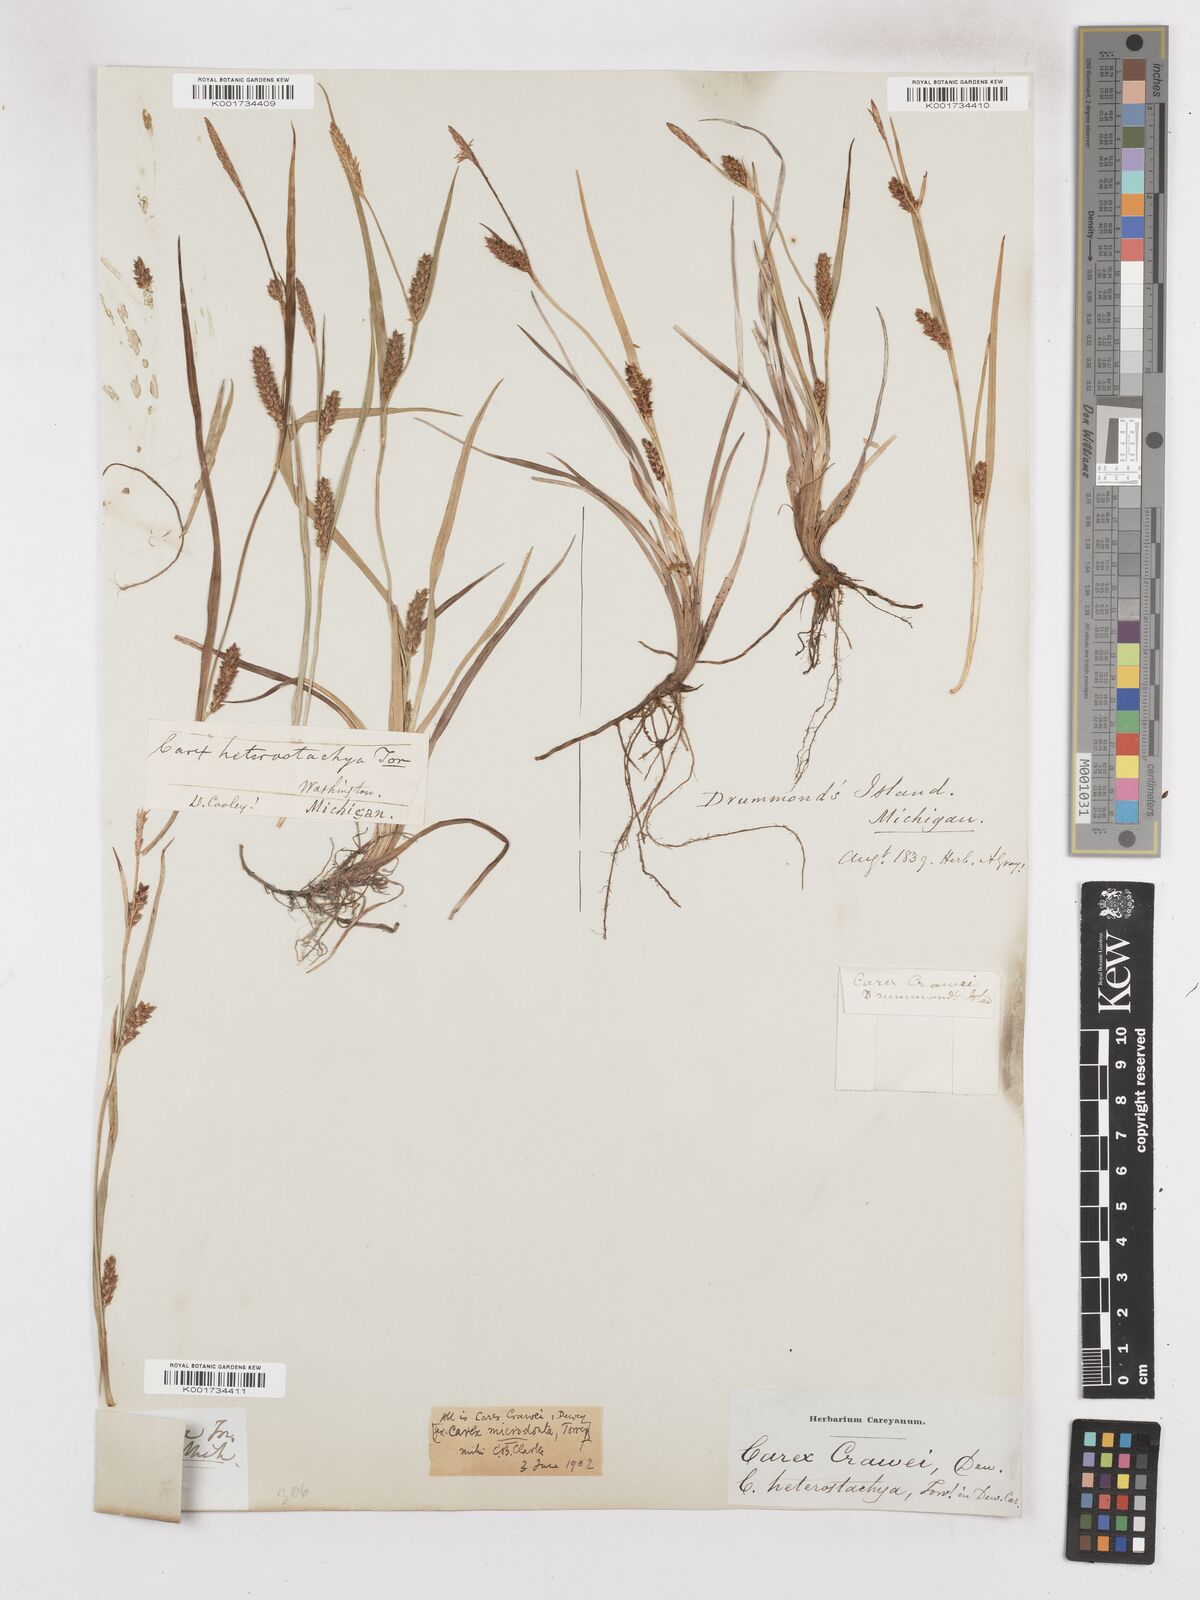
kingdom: Plantae
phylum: Tracheophyta
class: Liliopsida
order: Poales
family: Cyperaceae
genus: Carex
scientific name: Carex crawei
